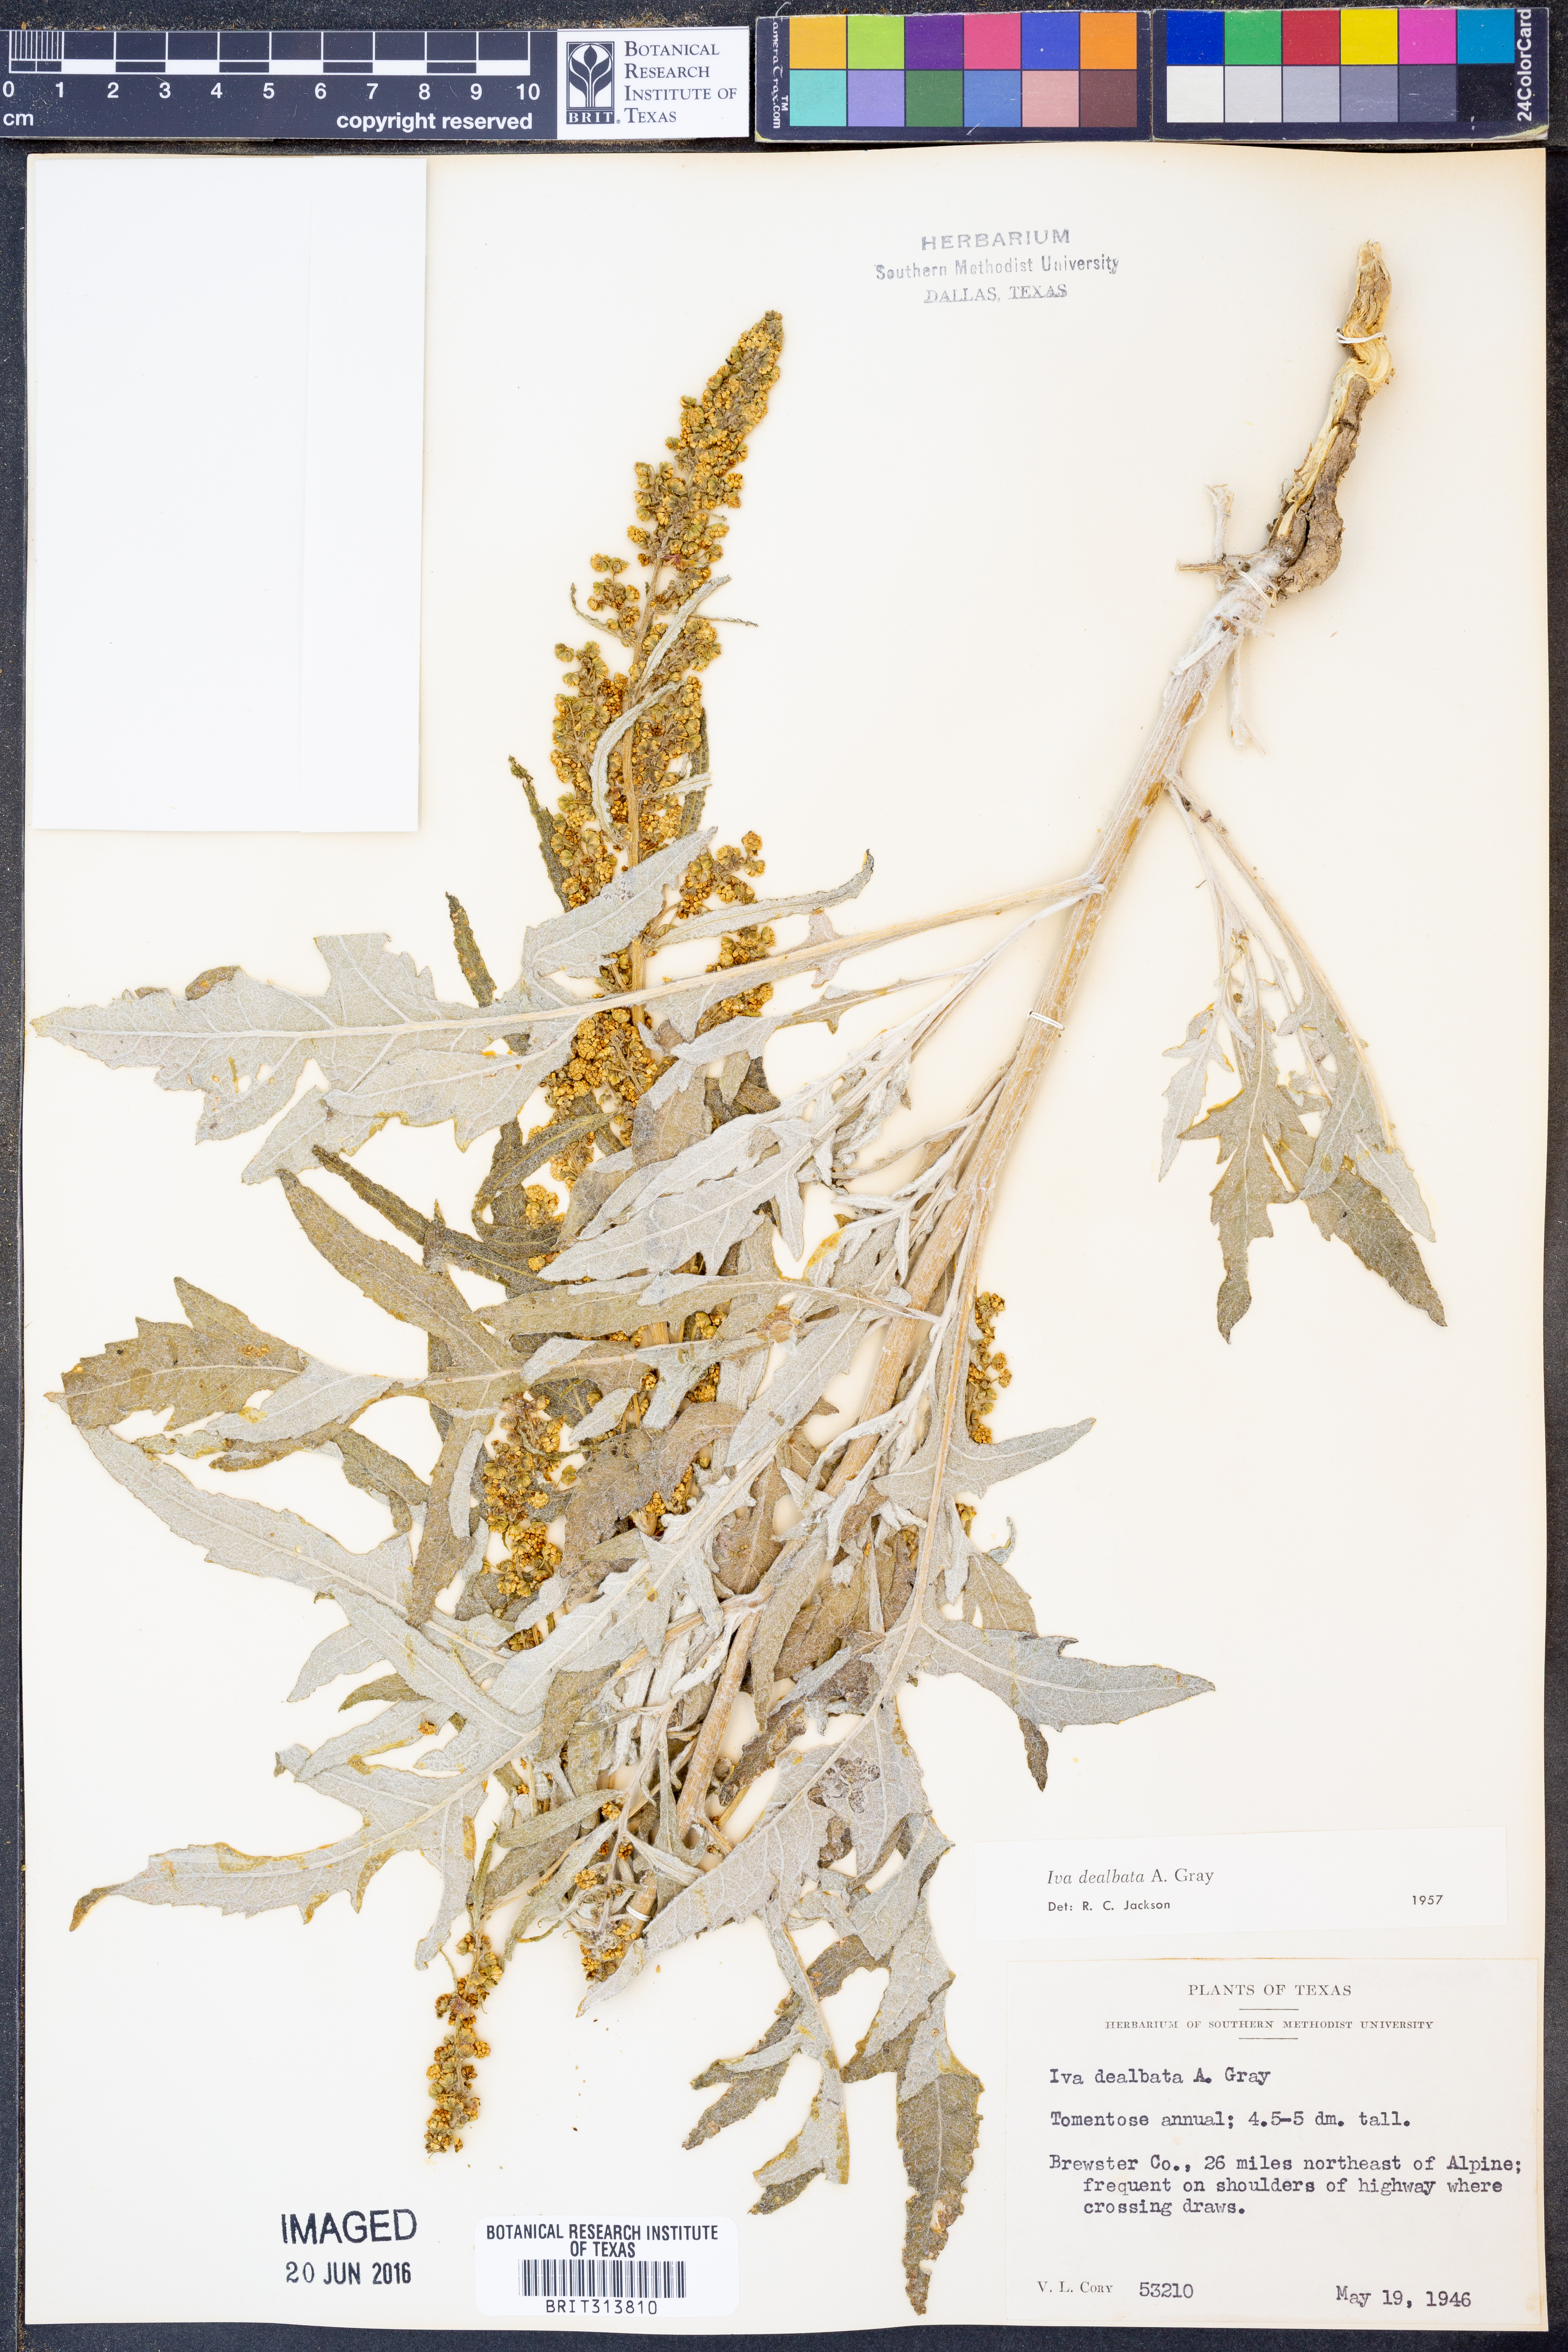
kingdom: Plantae
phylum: Tracheophyta
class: Magnoliopsida
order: Asterales
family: Asteraceae
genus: Euphrosyne
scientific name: Euphrosyne dealbata
